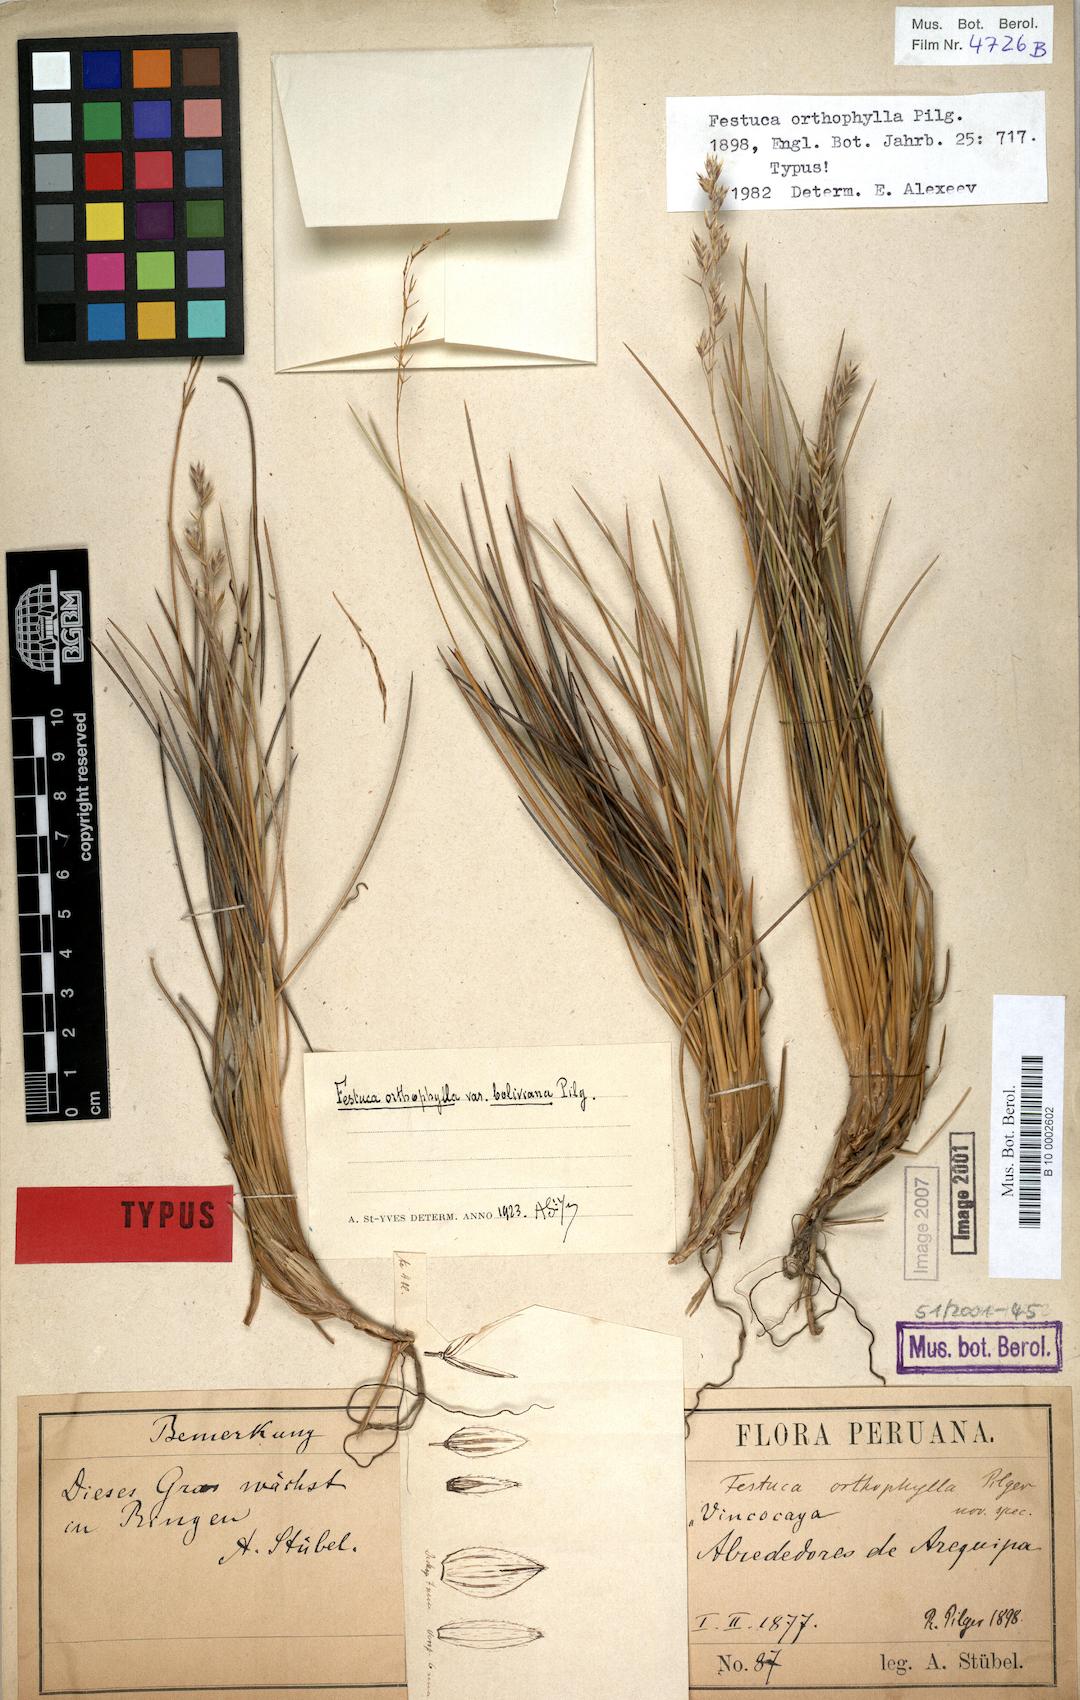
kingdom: Plantae
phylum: Tracheophyta
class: Liliopsida
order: Poales
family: Poaceae
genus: Festuca
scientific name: Festuca chrysophylla
